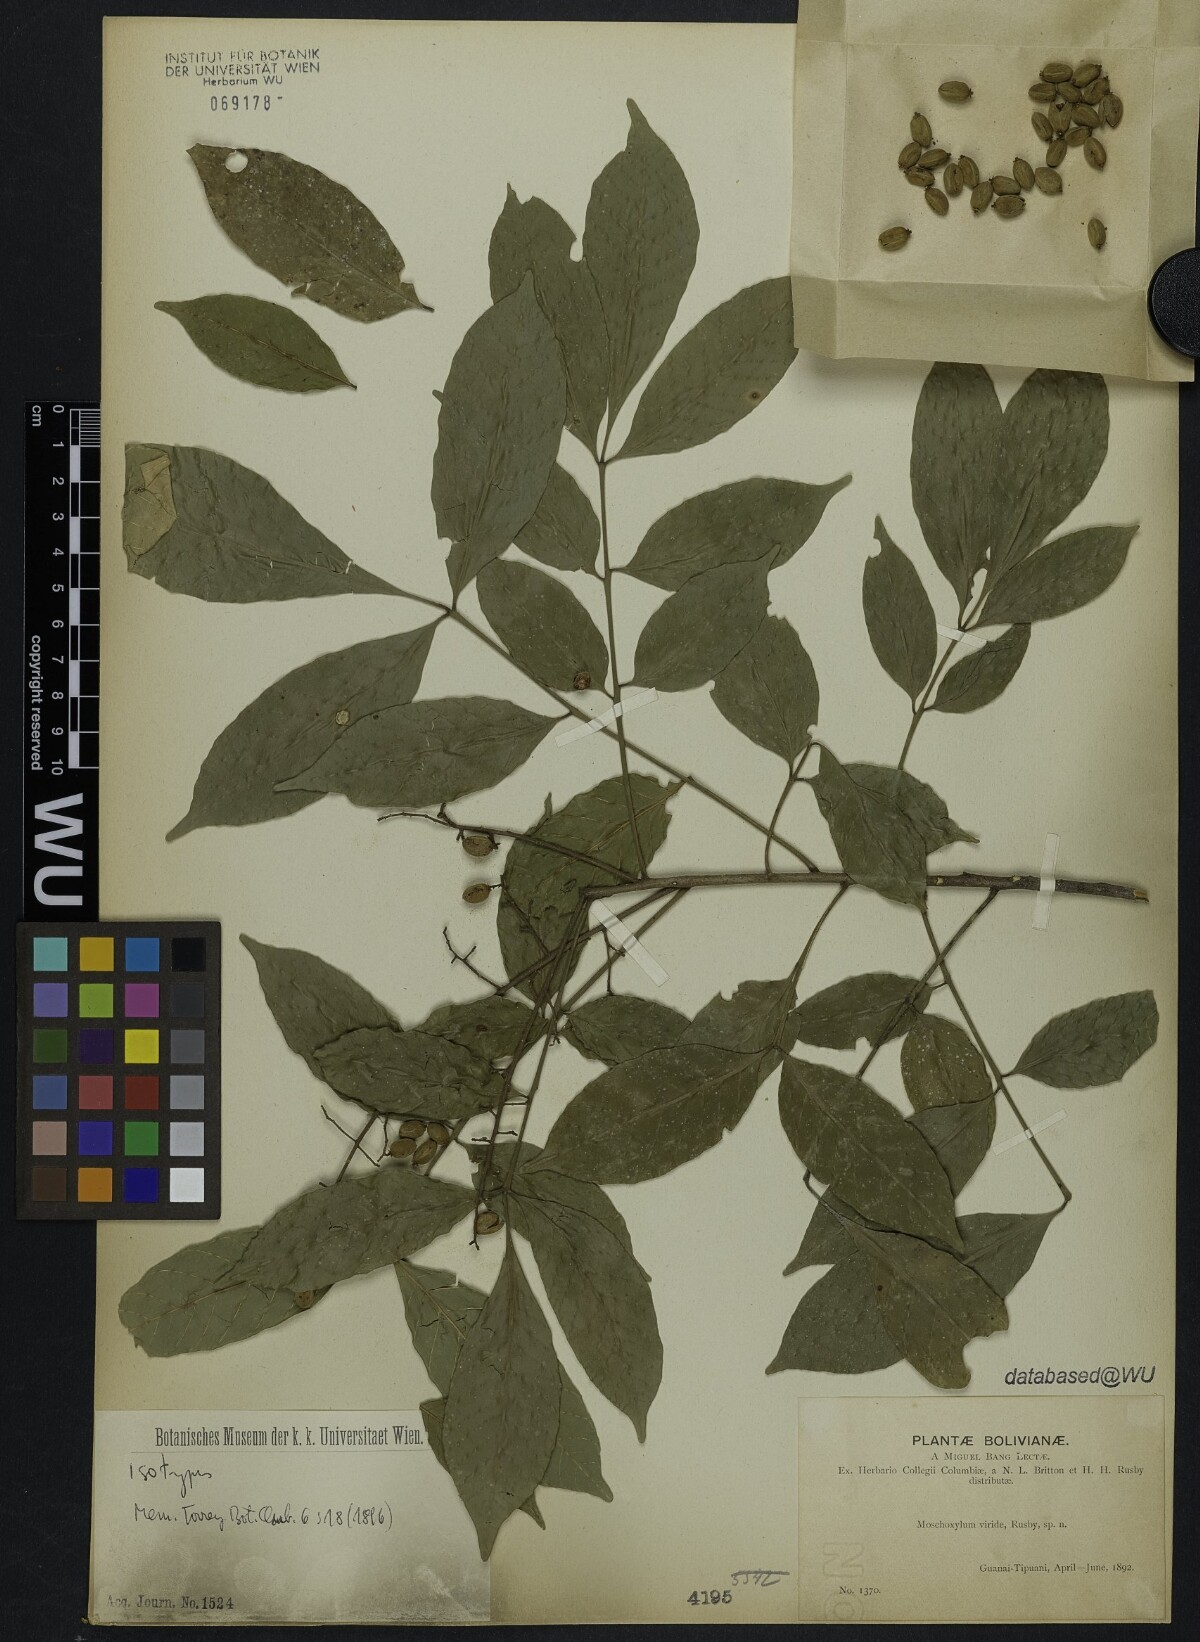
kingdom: Plantae
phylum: Tracheophyta
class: Magnoliopsida
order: Sapindales
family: Meliaceae
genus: Trichilia
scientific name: Trichilia elegans
